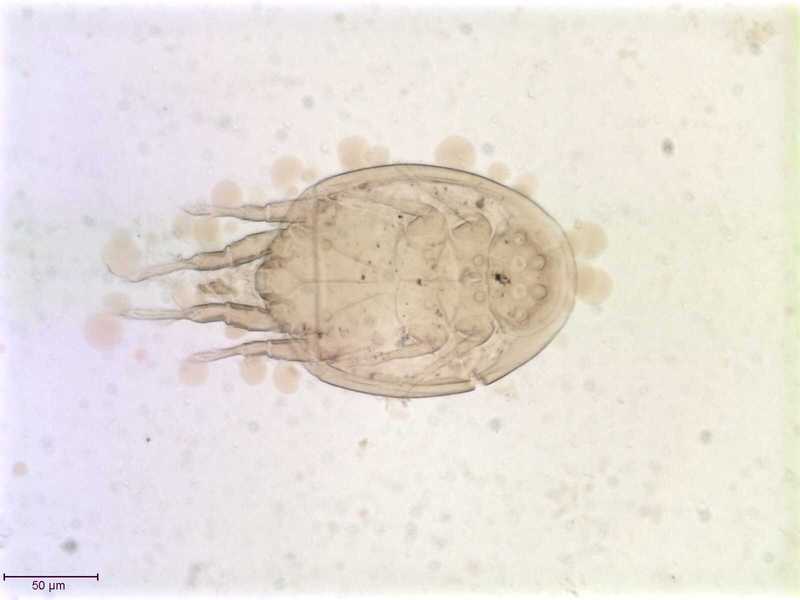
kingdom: Animalia
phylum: Arthropoda
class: Arachnida
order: Sarcoptiformes
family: Histiostomatidae
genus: Histiostoma
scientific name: Histiostoma granulatum
